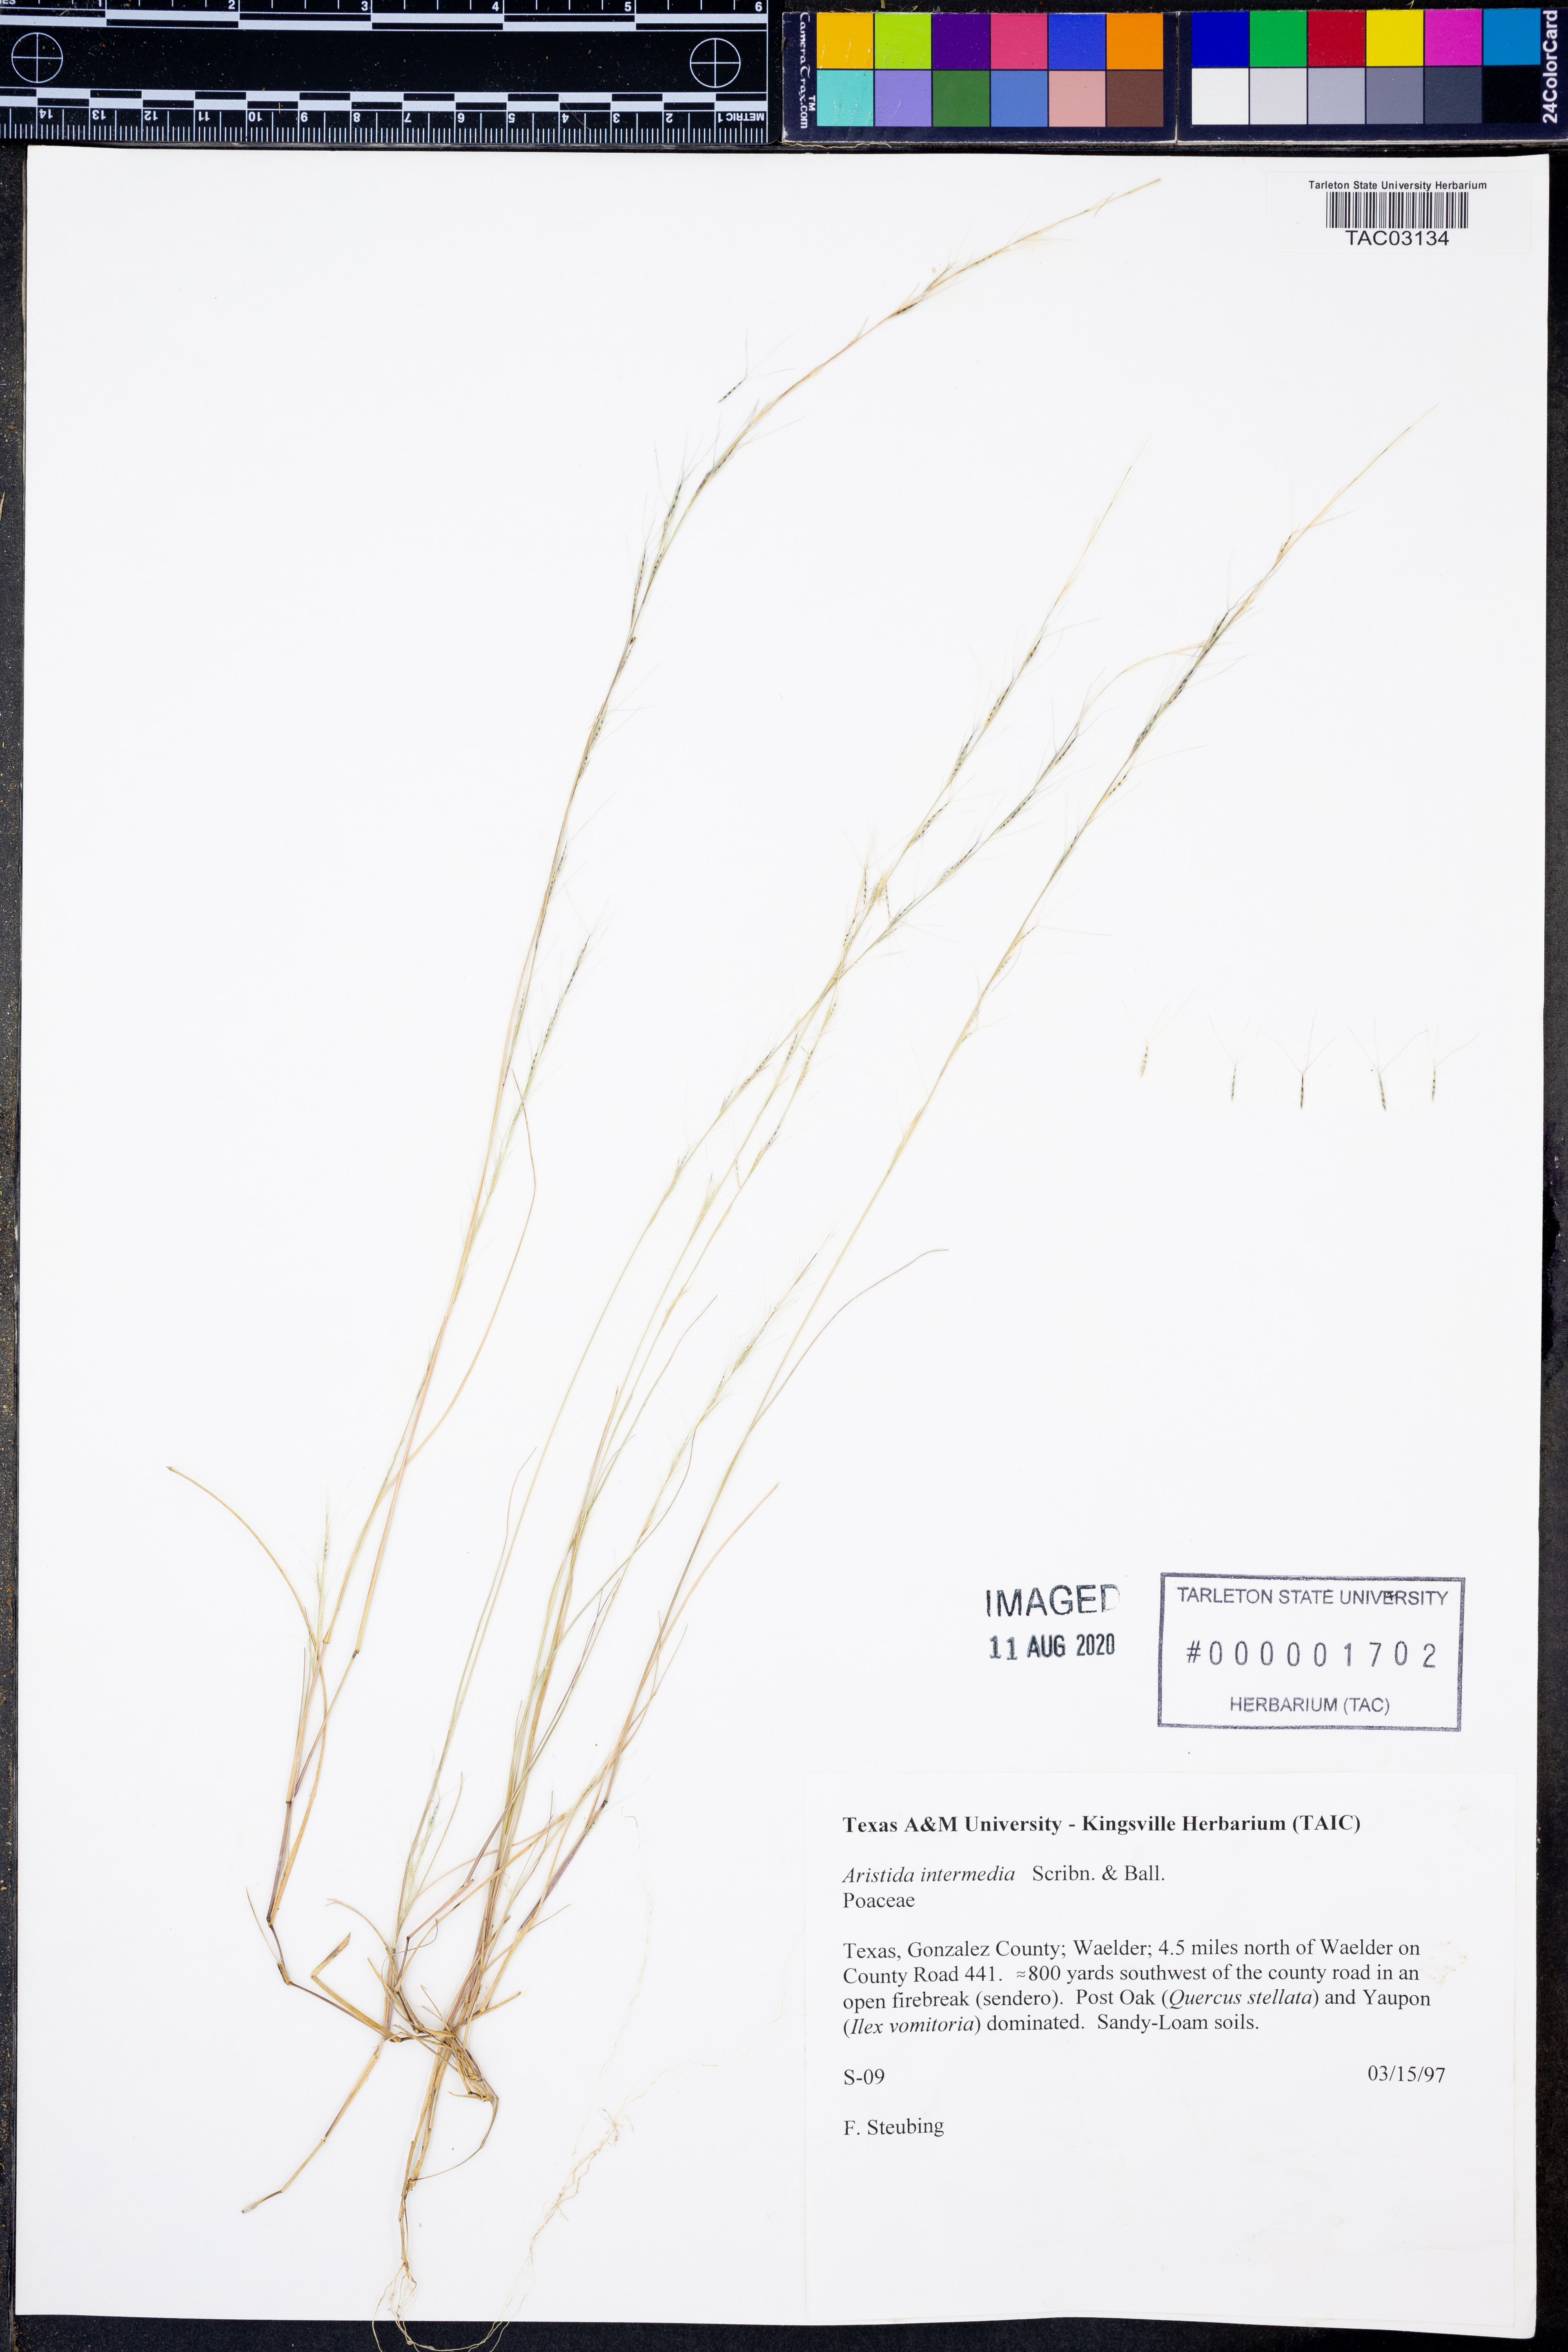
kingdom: Plantae
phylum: Tracheophyta
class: Liliopsida
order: Poales
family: Poaceae
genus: Aristida
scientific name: Aristida longespica
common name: Long-spiked triple-awned grass
